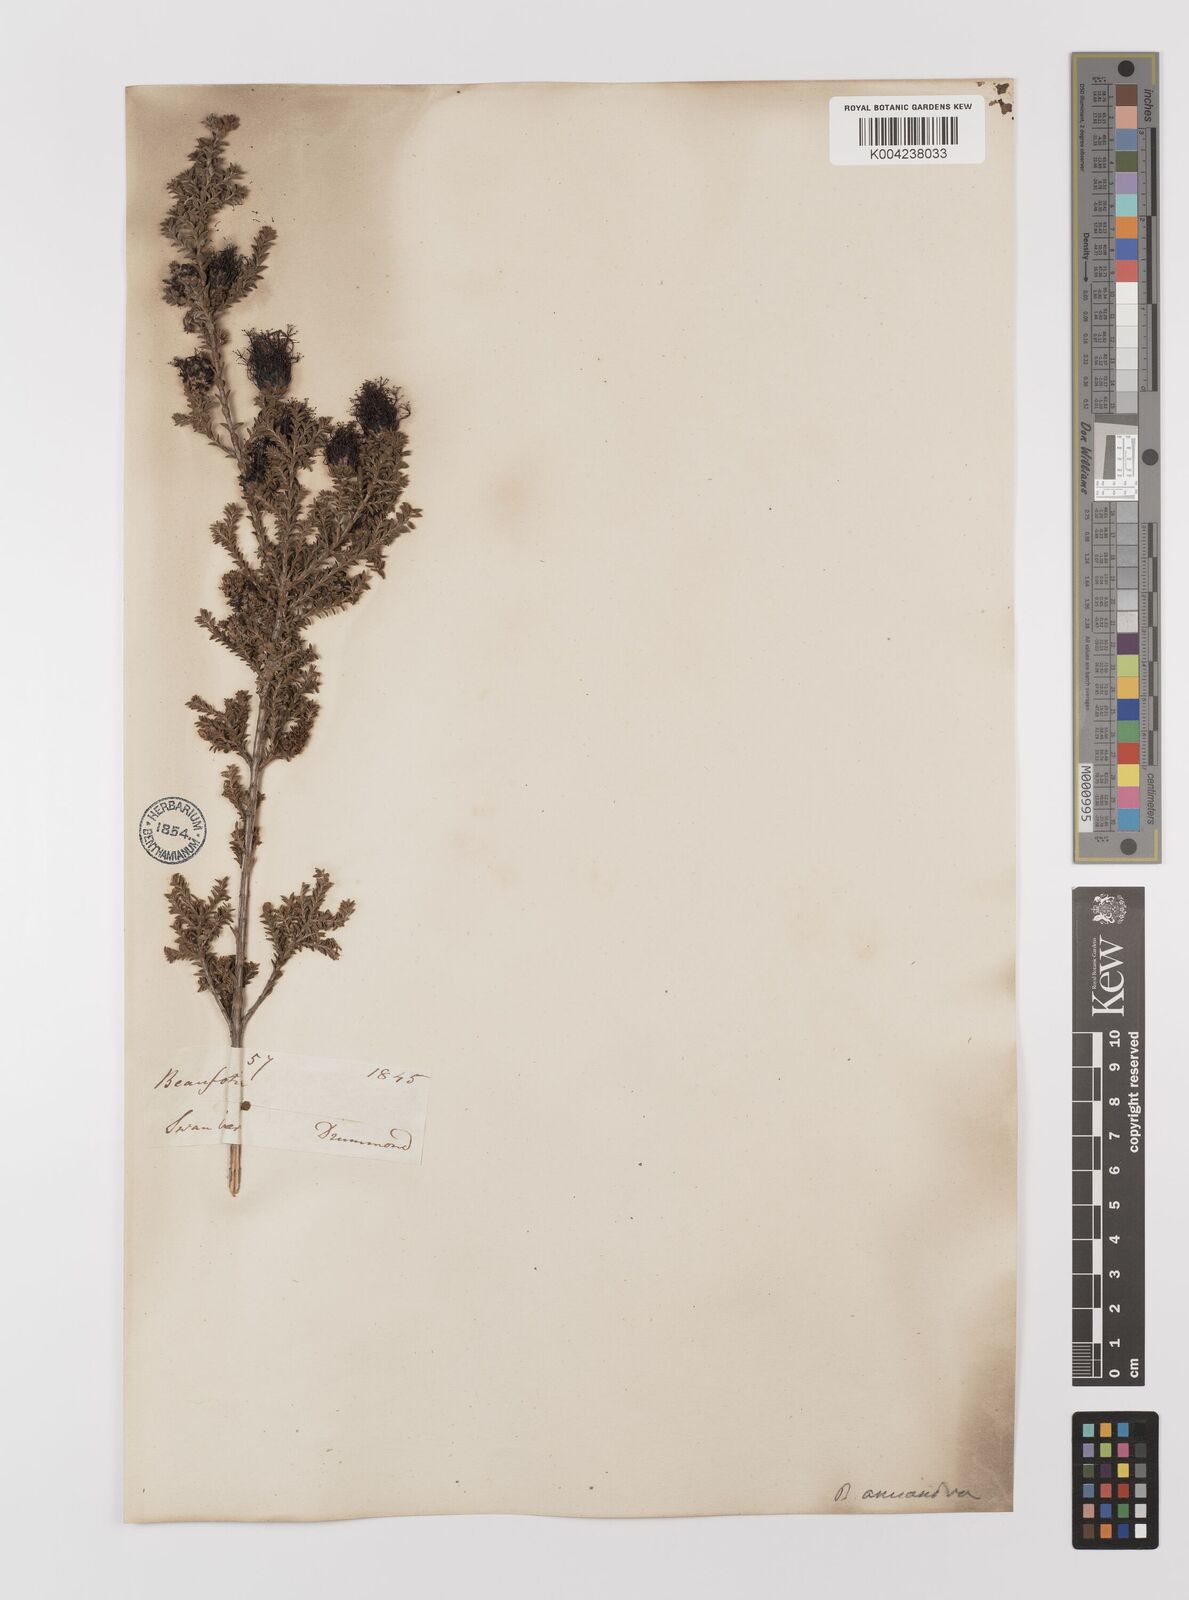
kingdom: Plantae
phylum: Tracheophyta
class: Magnoliopsida
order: Myrtales
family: Myrtaceae
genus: Melaleuca
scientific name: Melaleuca anisandra
